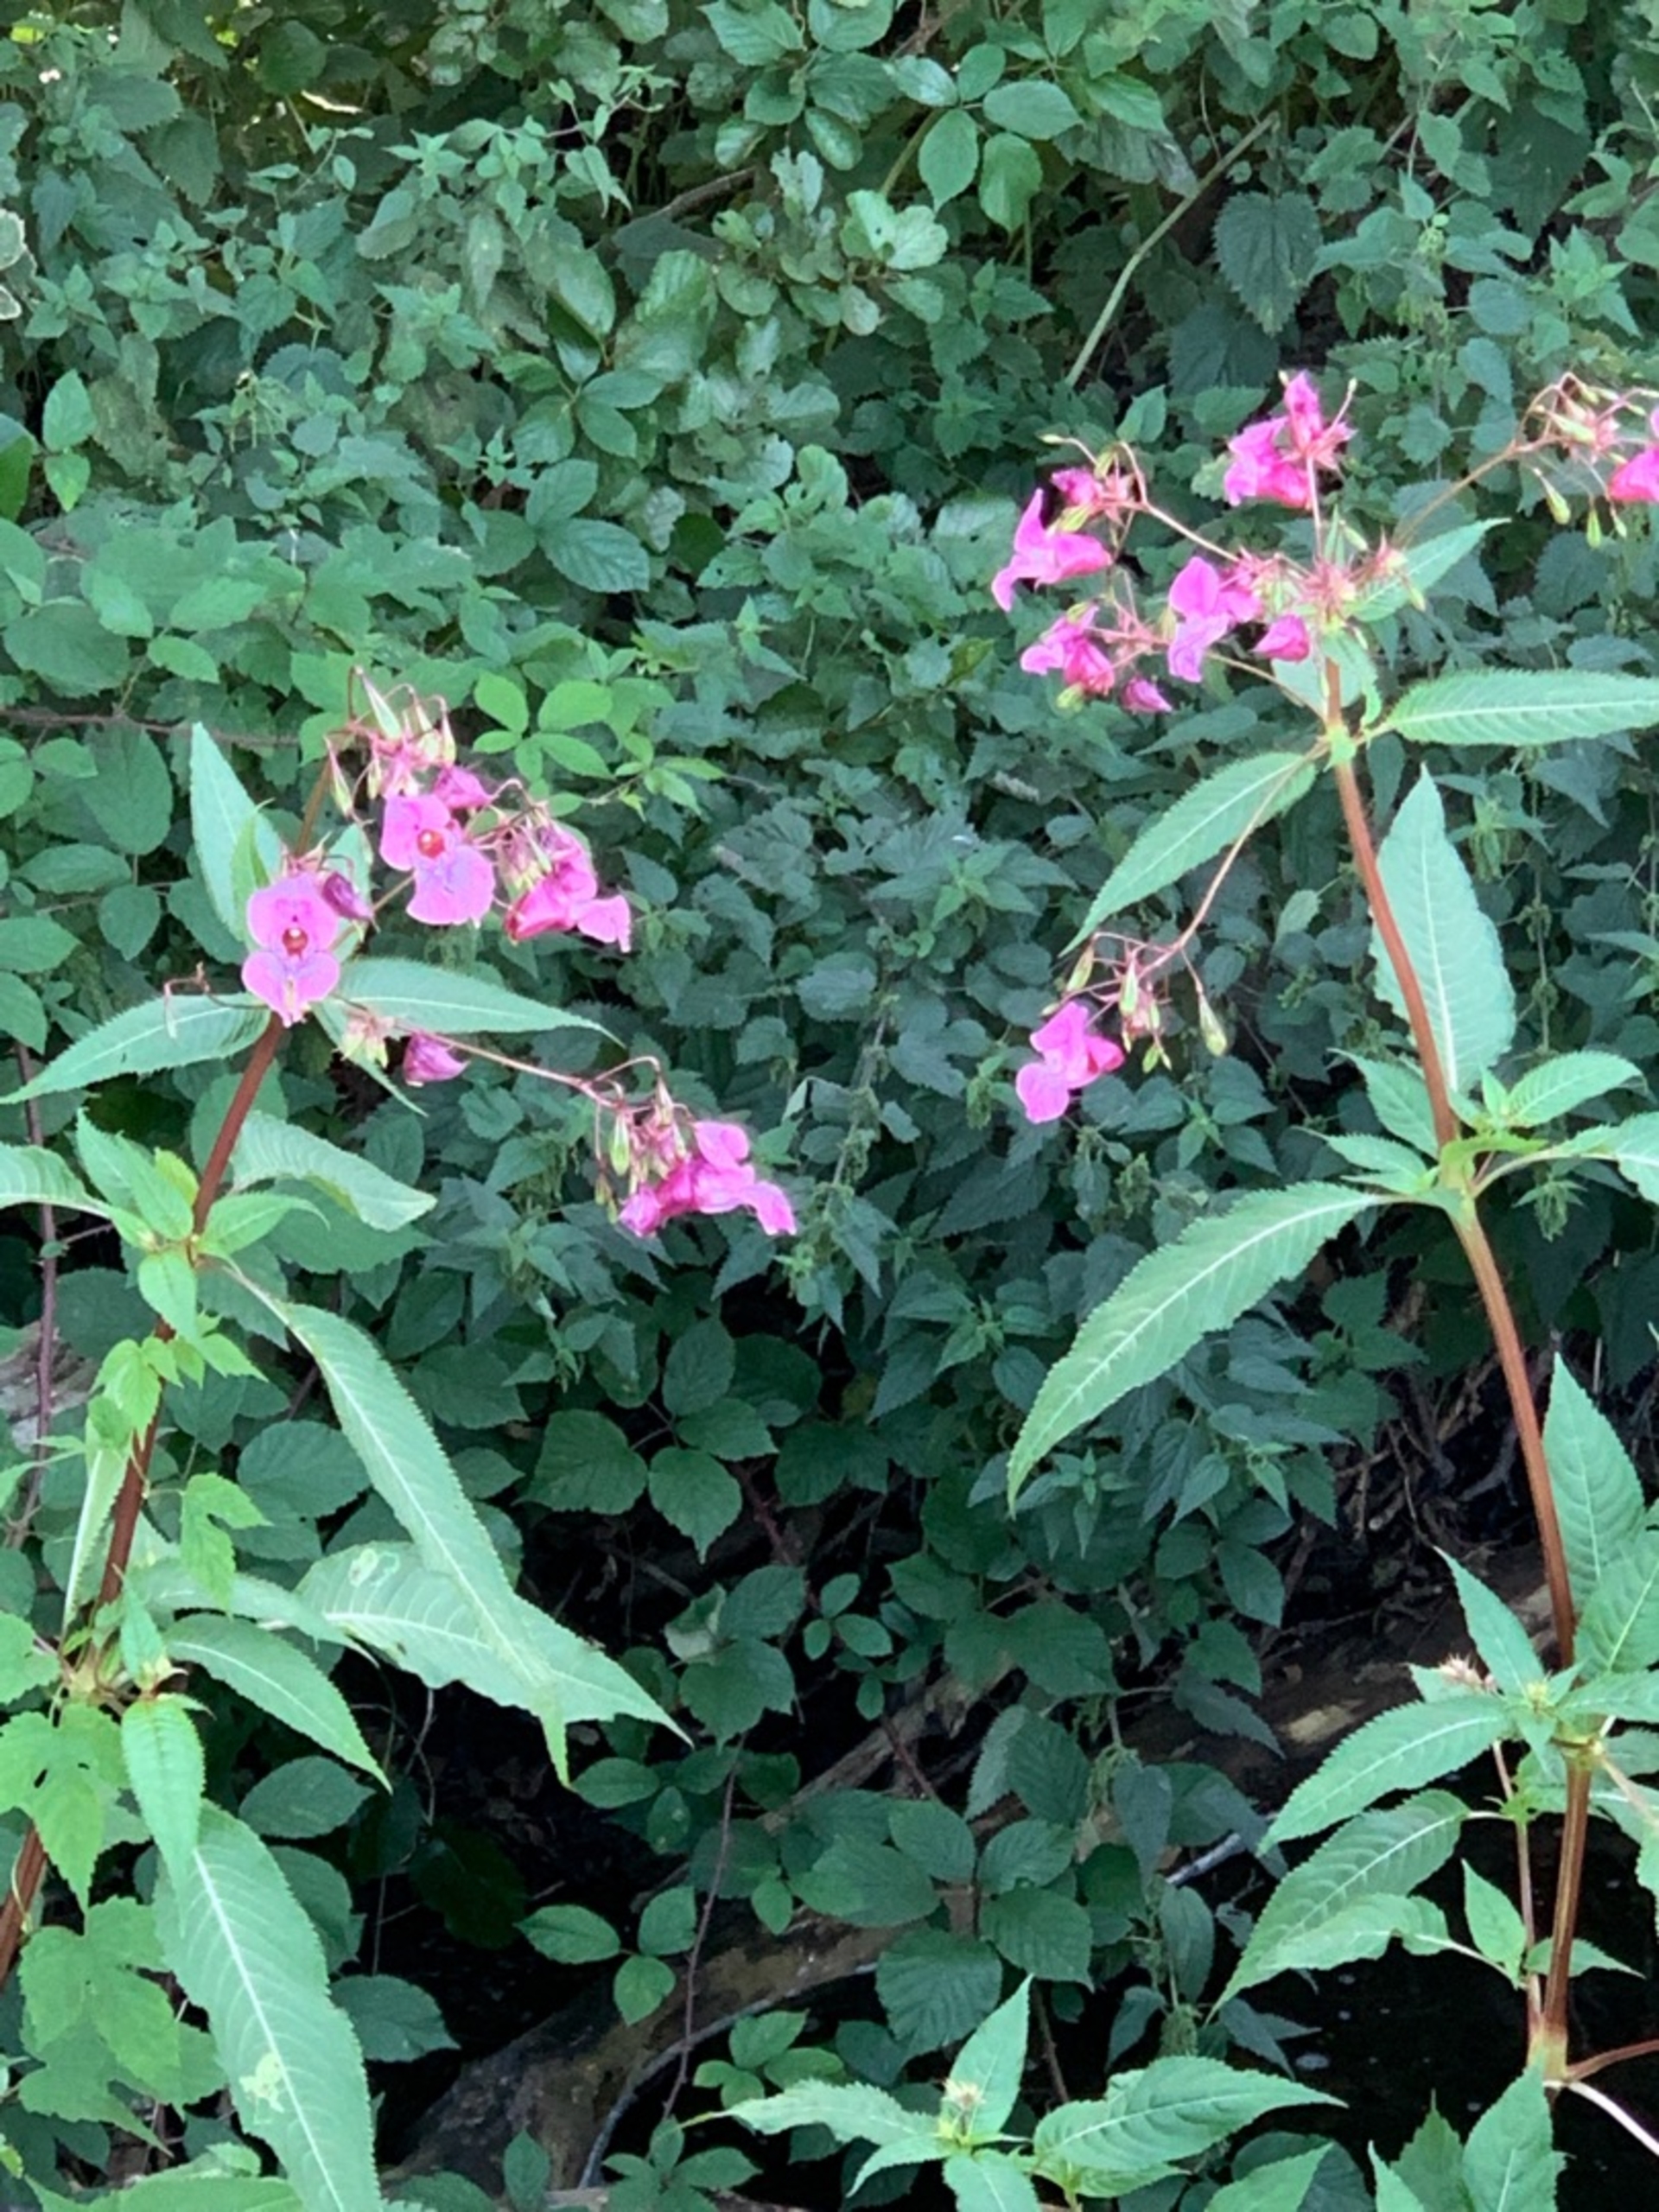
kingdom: Plantae
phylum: Tracheophyta
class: Magnoliopsida
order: Ericales
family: Balsaminaceae
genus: Impatiens
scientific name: Impatiens glandulifera
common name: Kæmpe-balsamin
